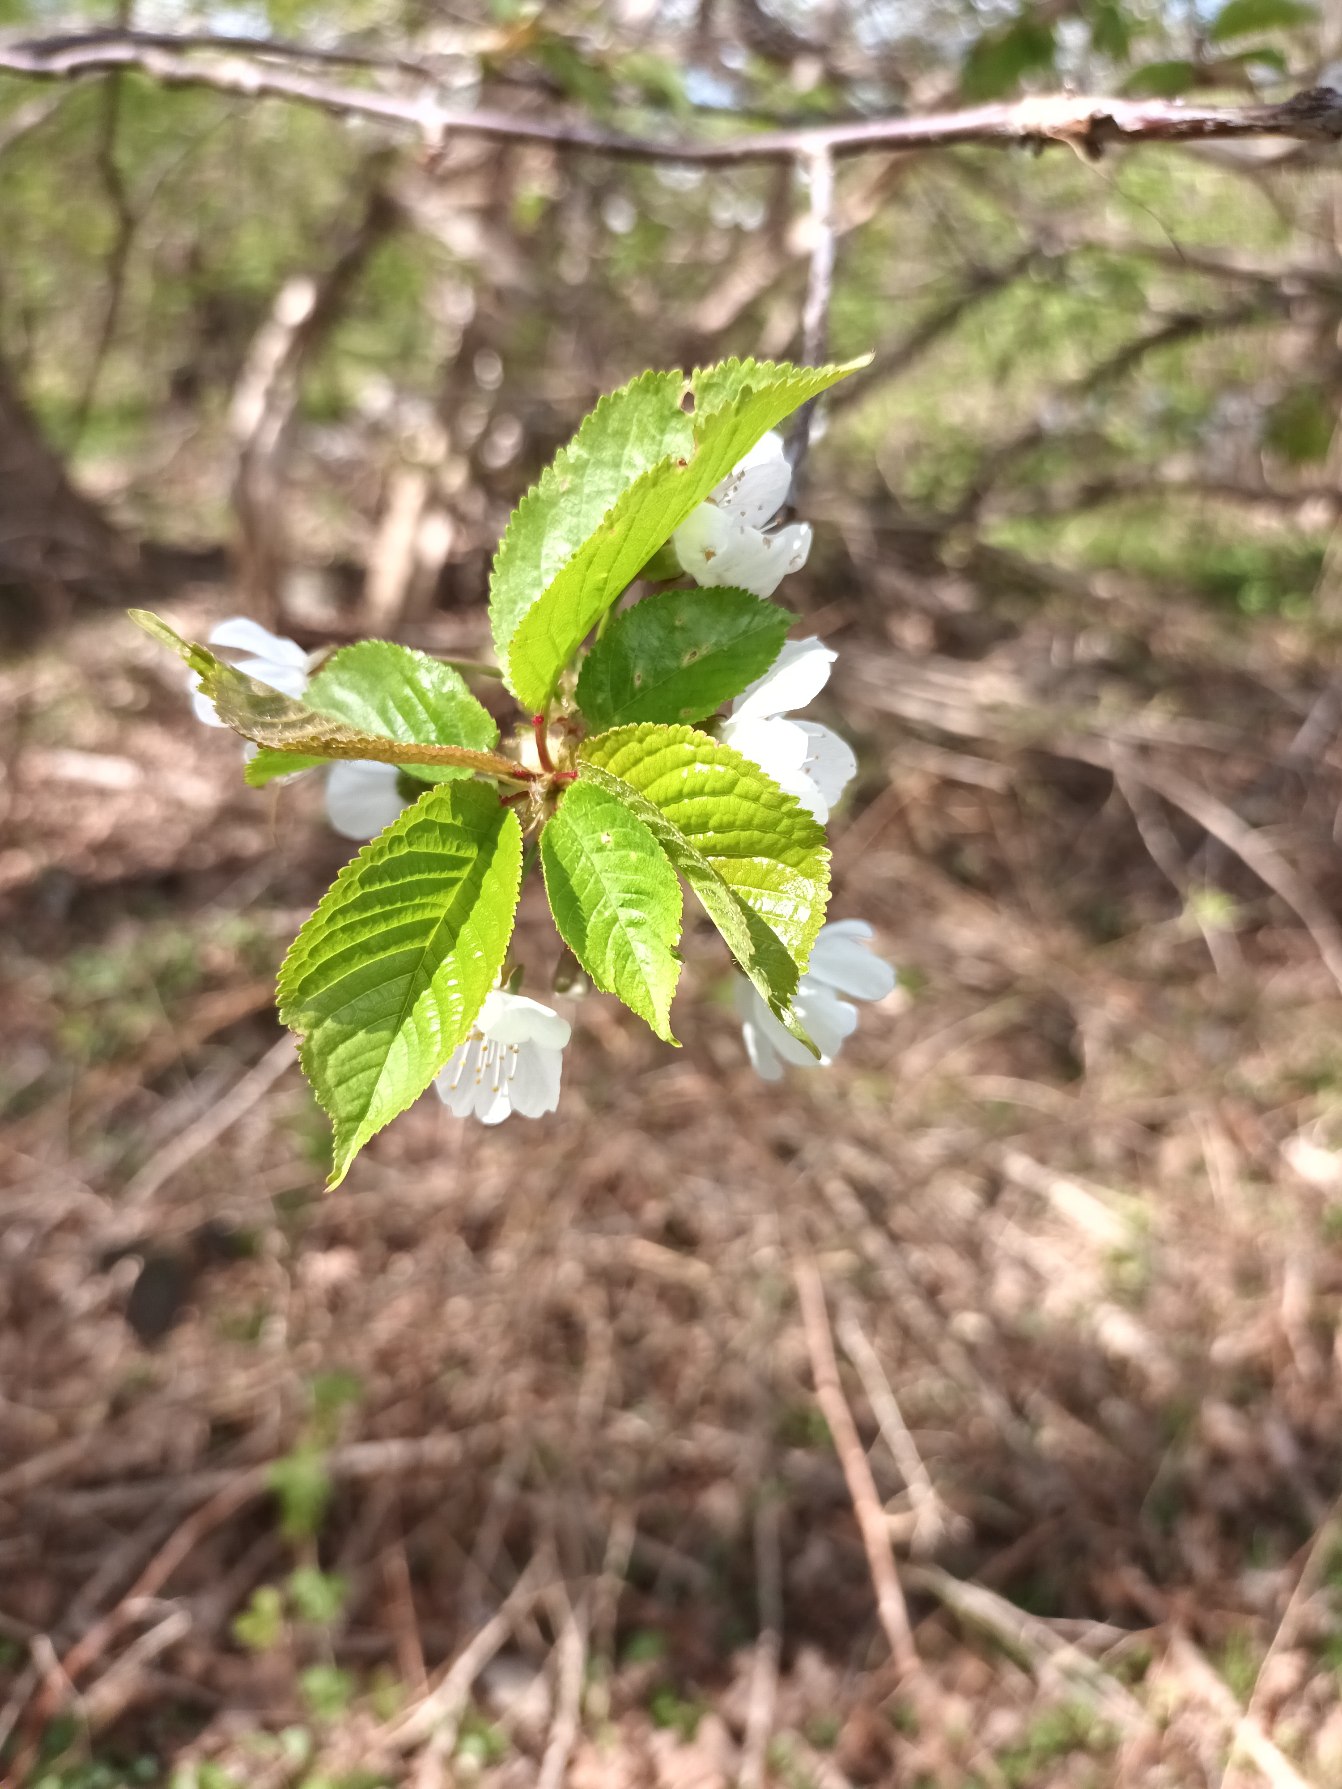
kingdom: Plantae
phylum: Tracheophyta
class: Magnoliopsida
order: Rosales
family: Rosaceae
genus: Prunus
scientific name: Prunus avium
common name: Fugle-kirsebær
